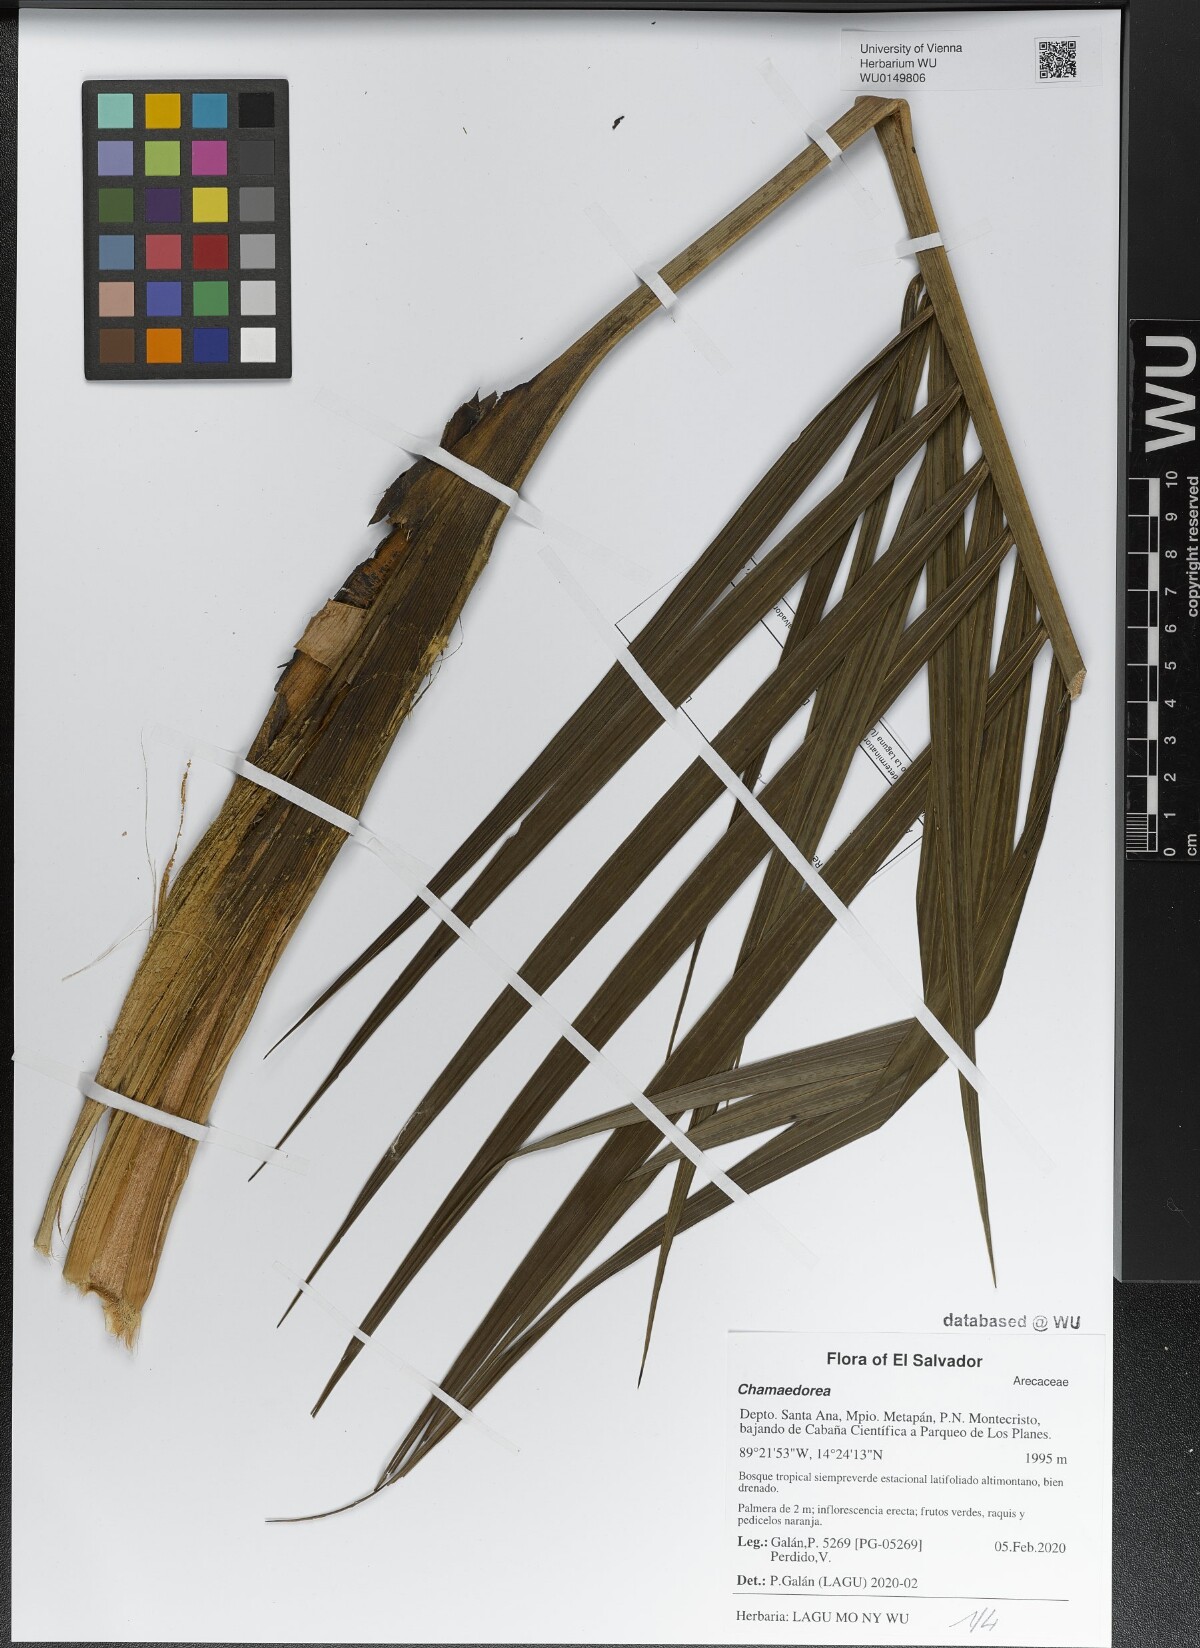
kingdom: Plantae
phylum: Tracheophyta
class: Liliopsida
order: Arecales
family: Arecaceae
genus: Chamaedorea
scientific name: Chamaedorea
